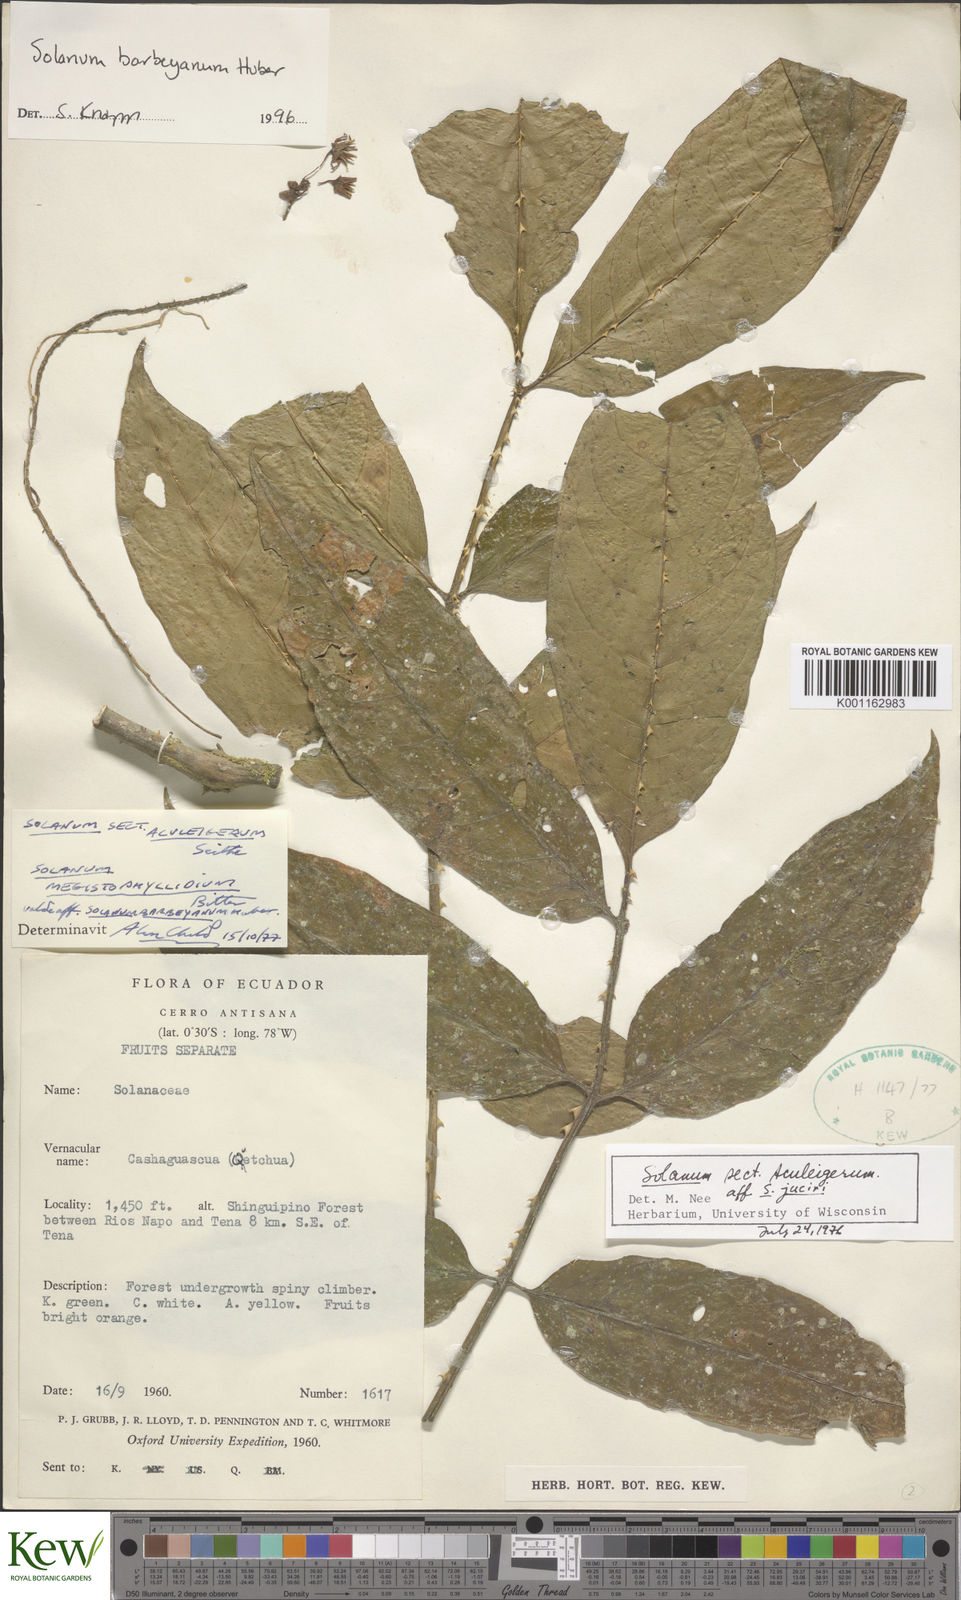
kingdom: Plantae
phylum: Tracheophyta
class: Magnoliopsida
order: Solanales
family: Solanaceae
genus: Solanum
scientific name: Solanum barbeyanum
